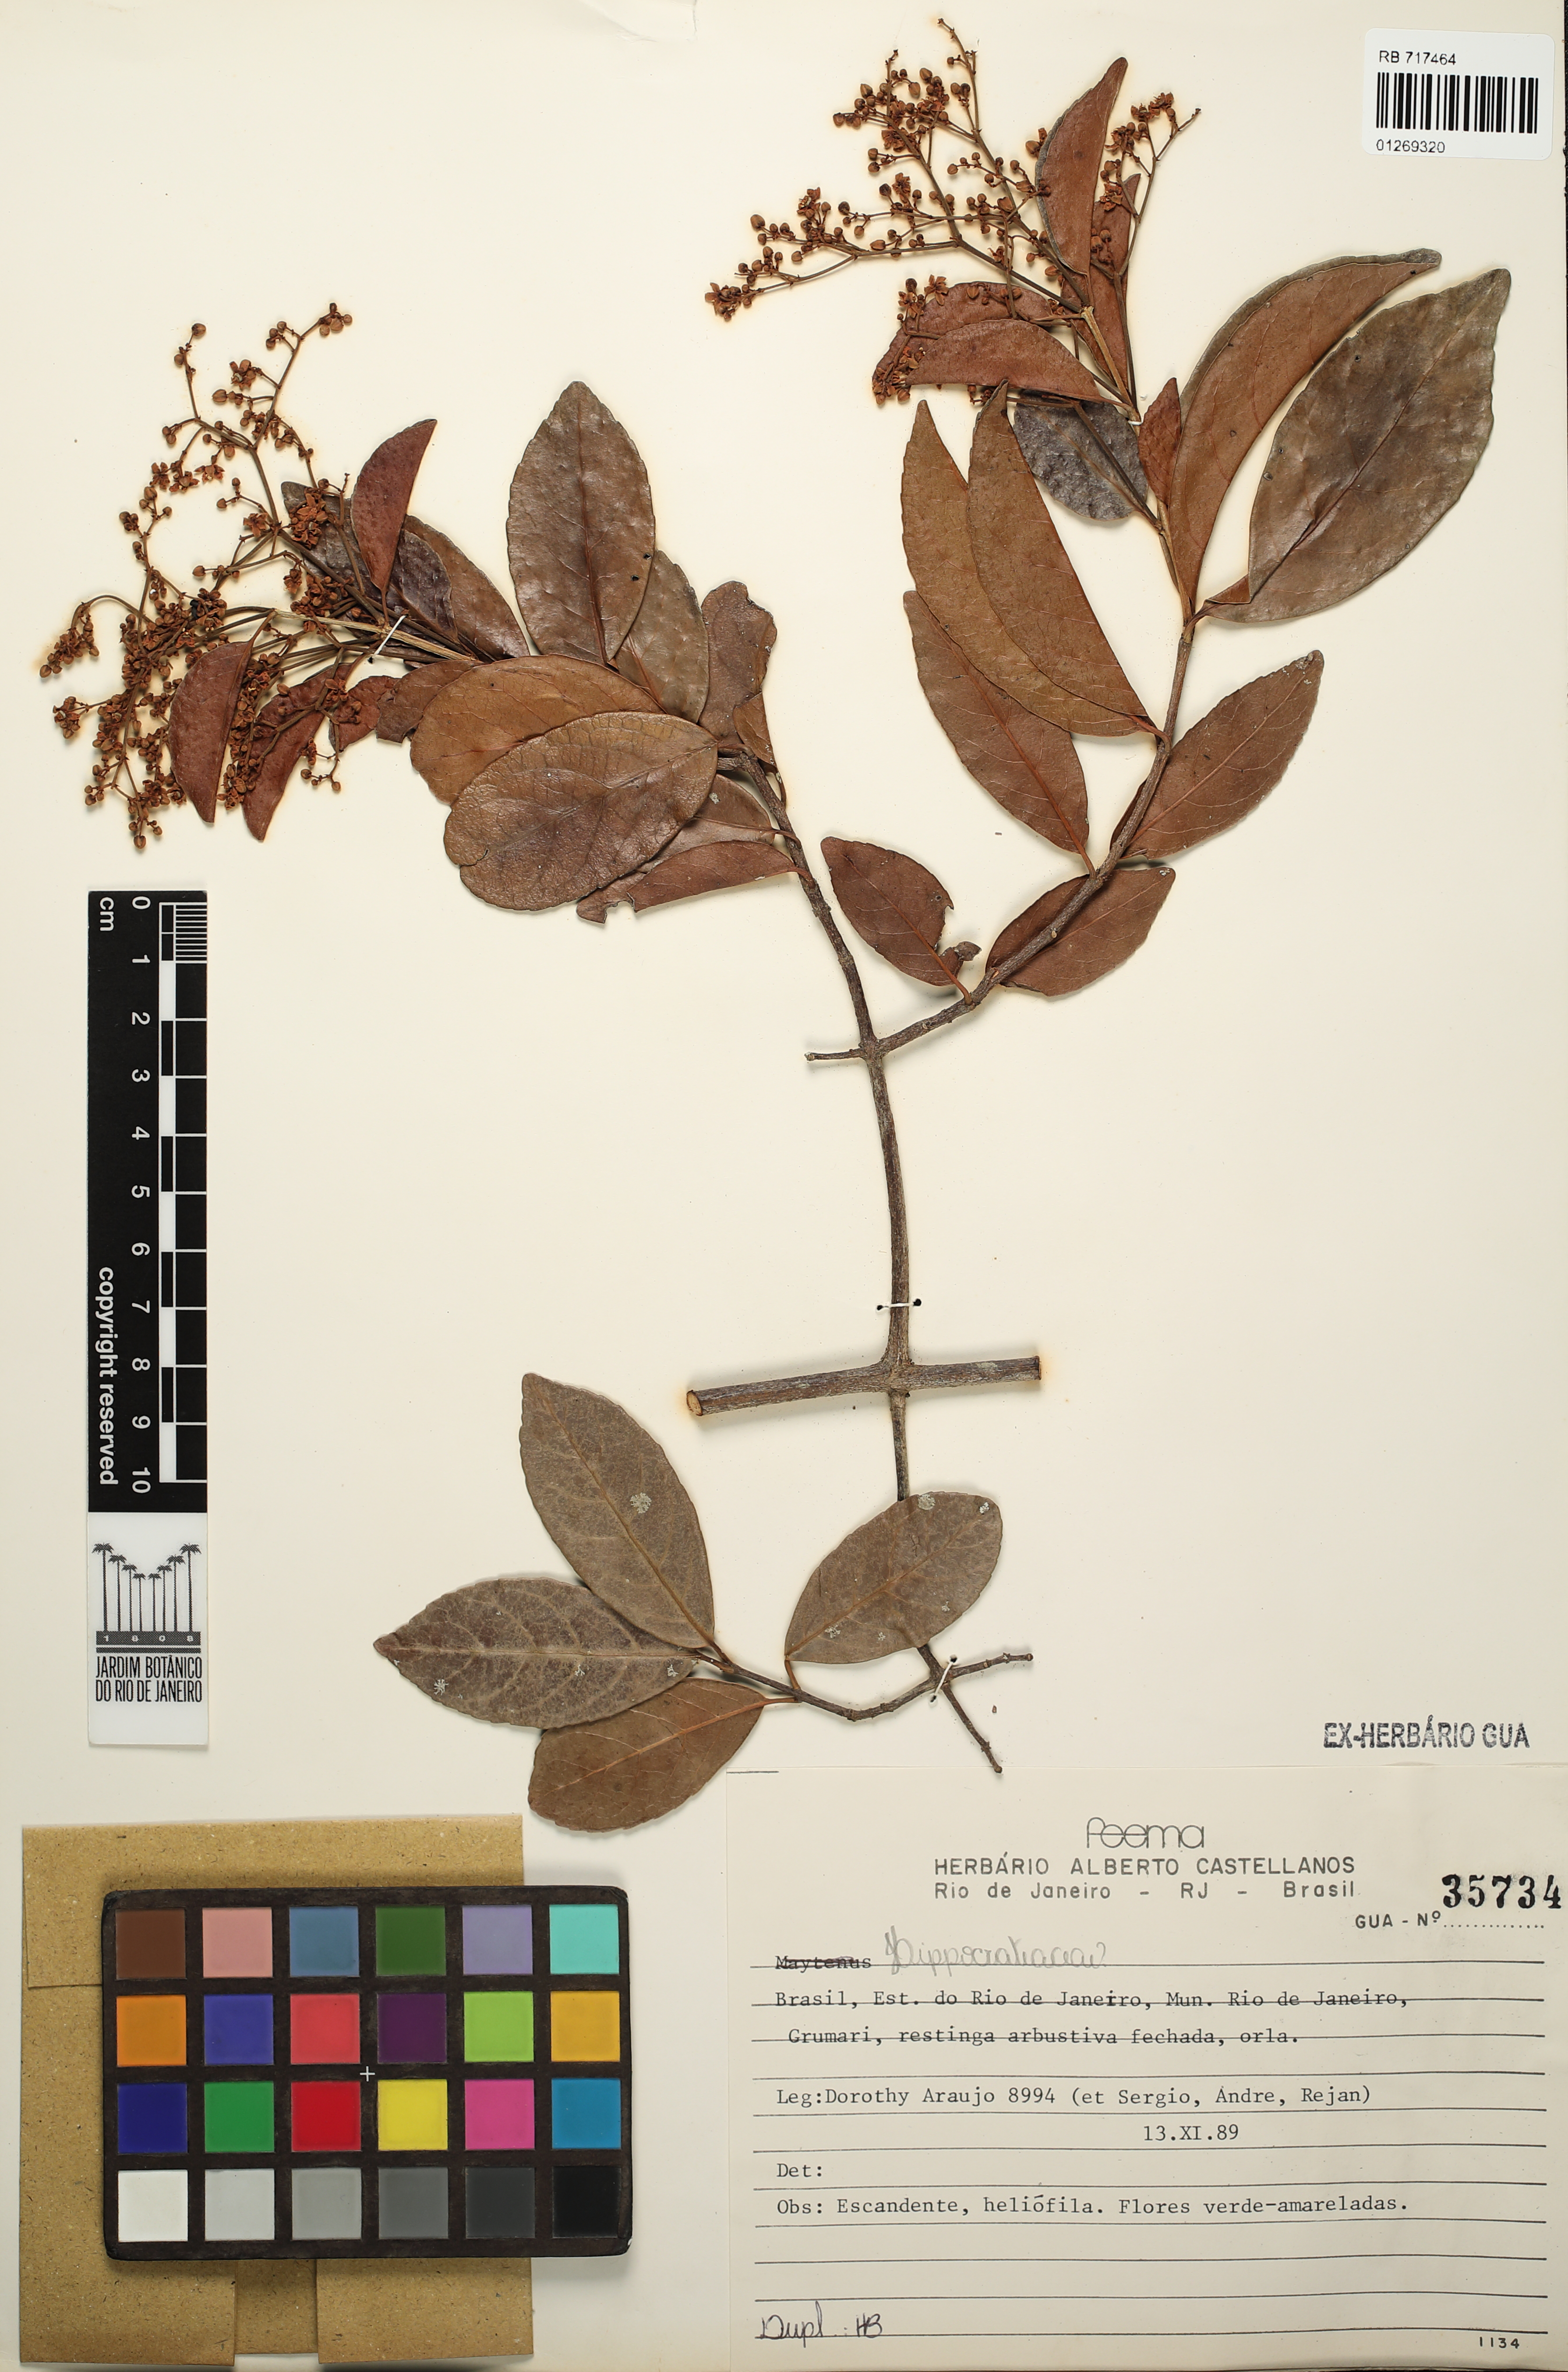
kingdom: Plantae
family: Hippocrateaceae
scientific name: Hippocrateaceae
